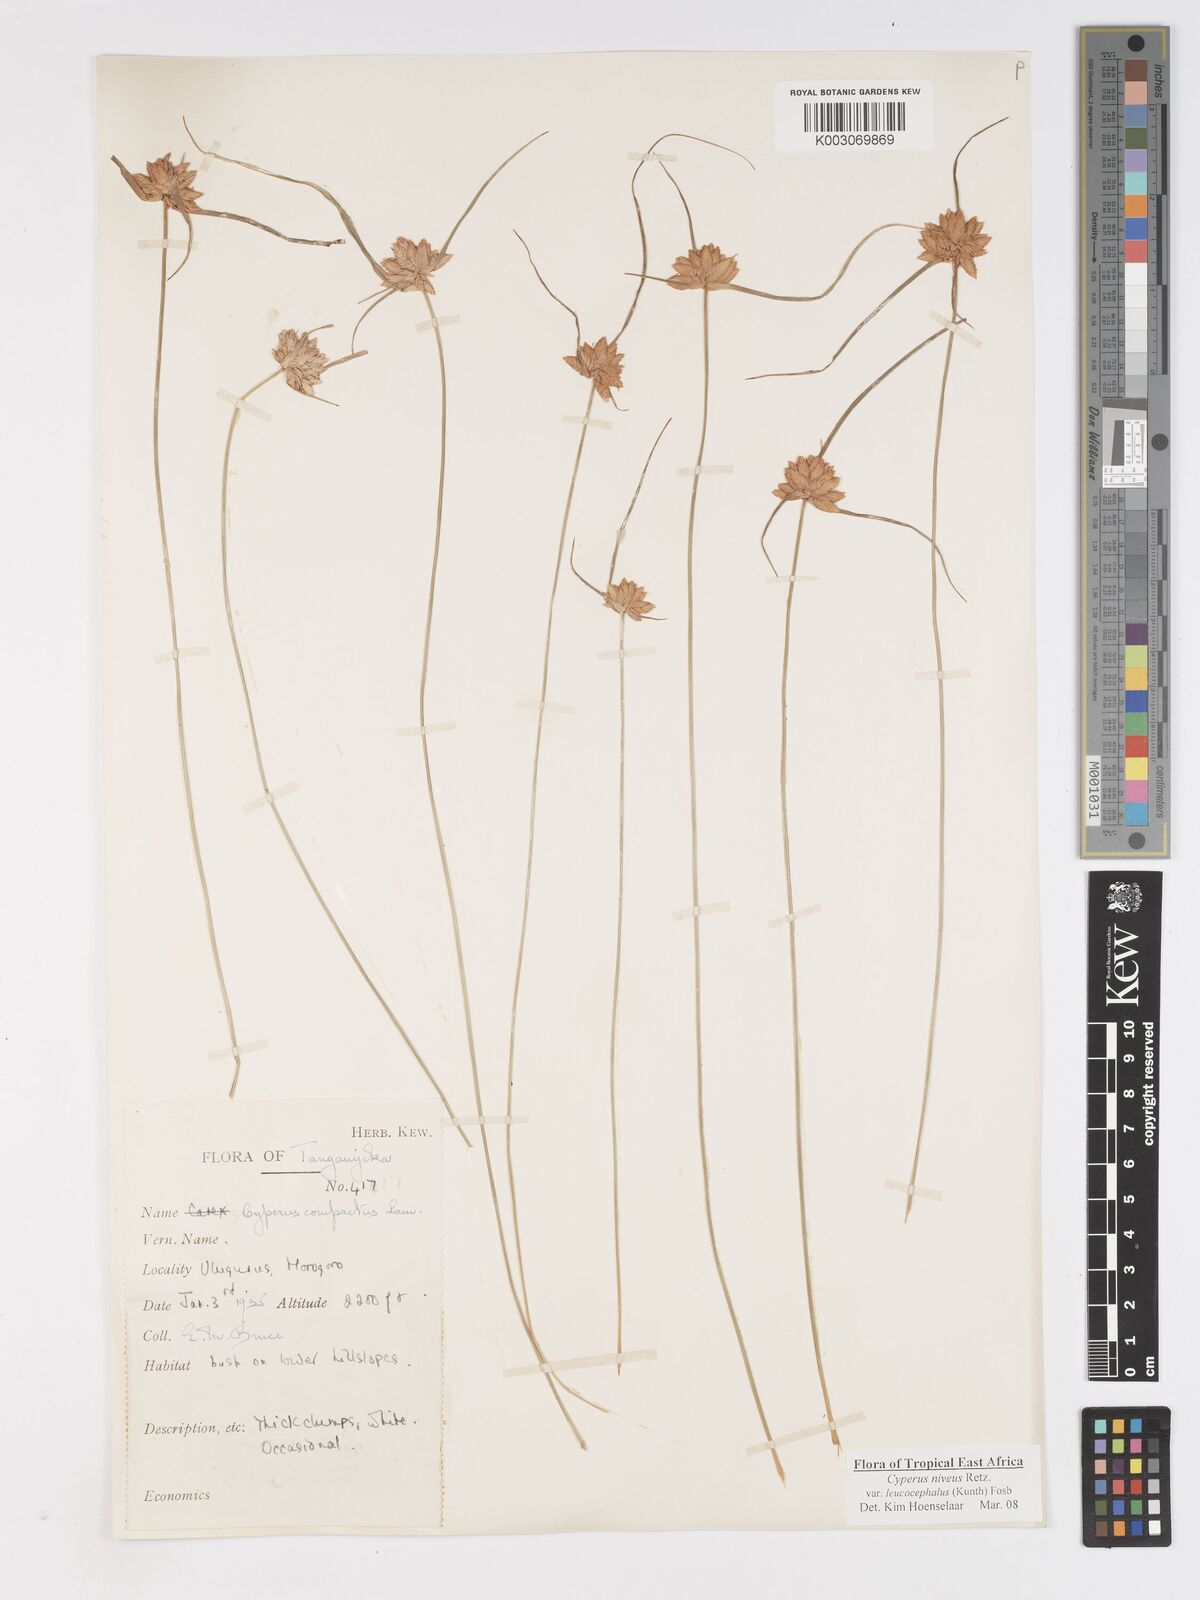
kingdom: Plantae
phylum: Tracheophyta
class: Liliopsida
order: Poales
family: Cyperaceae
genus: Cyperus
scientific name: Cyperus niveus
